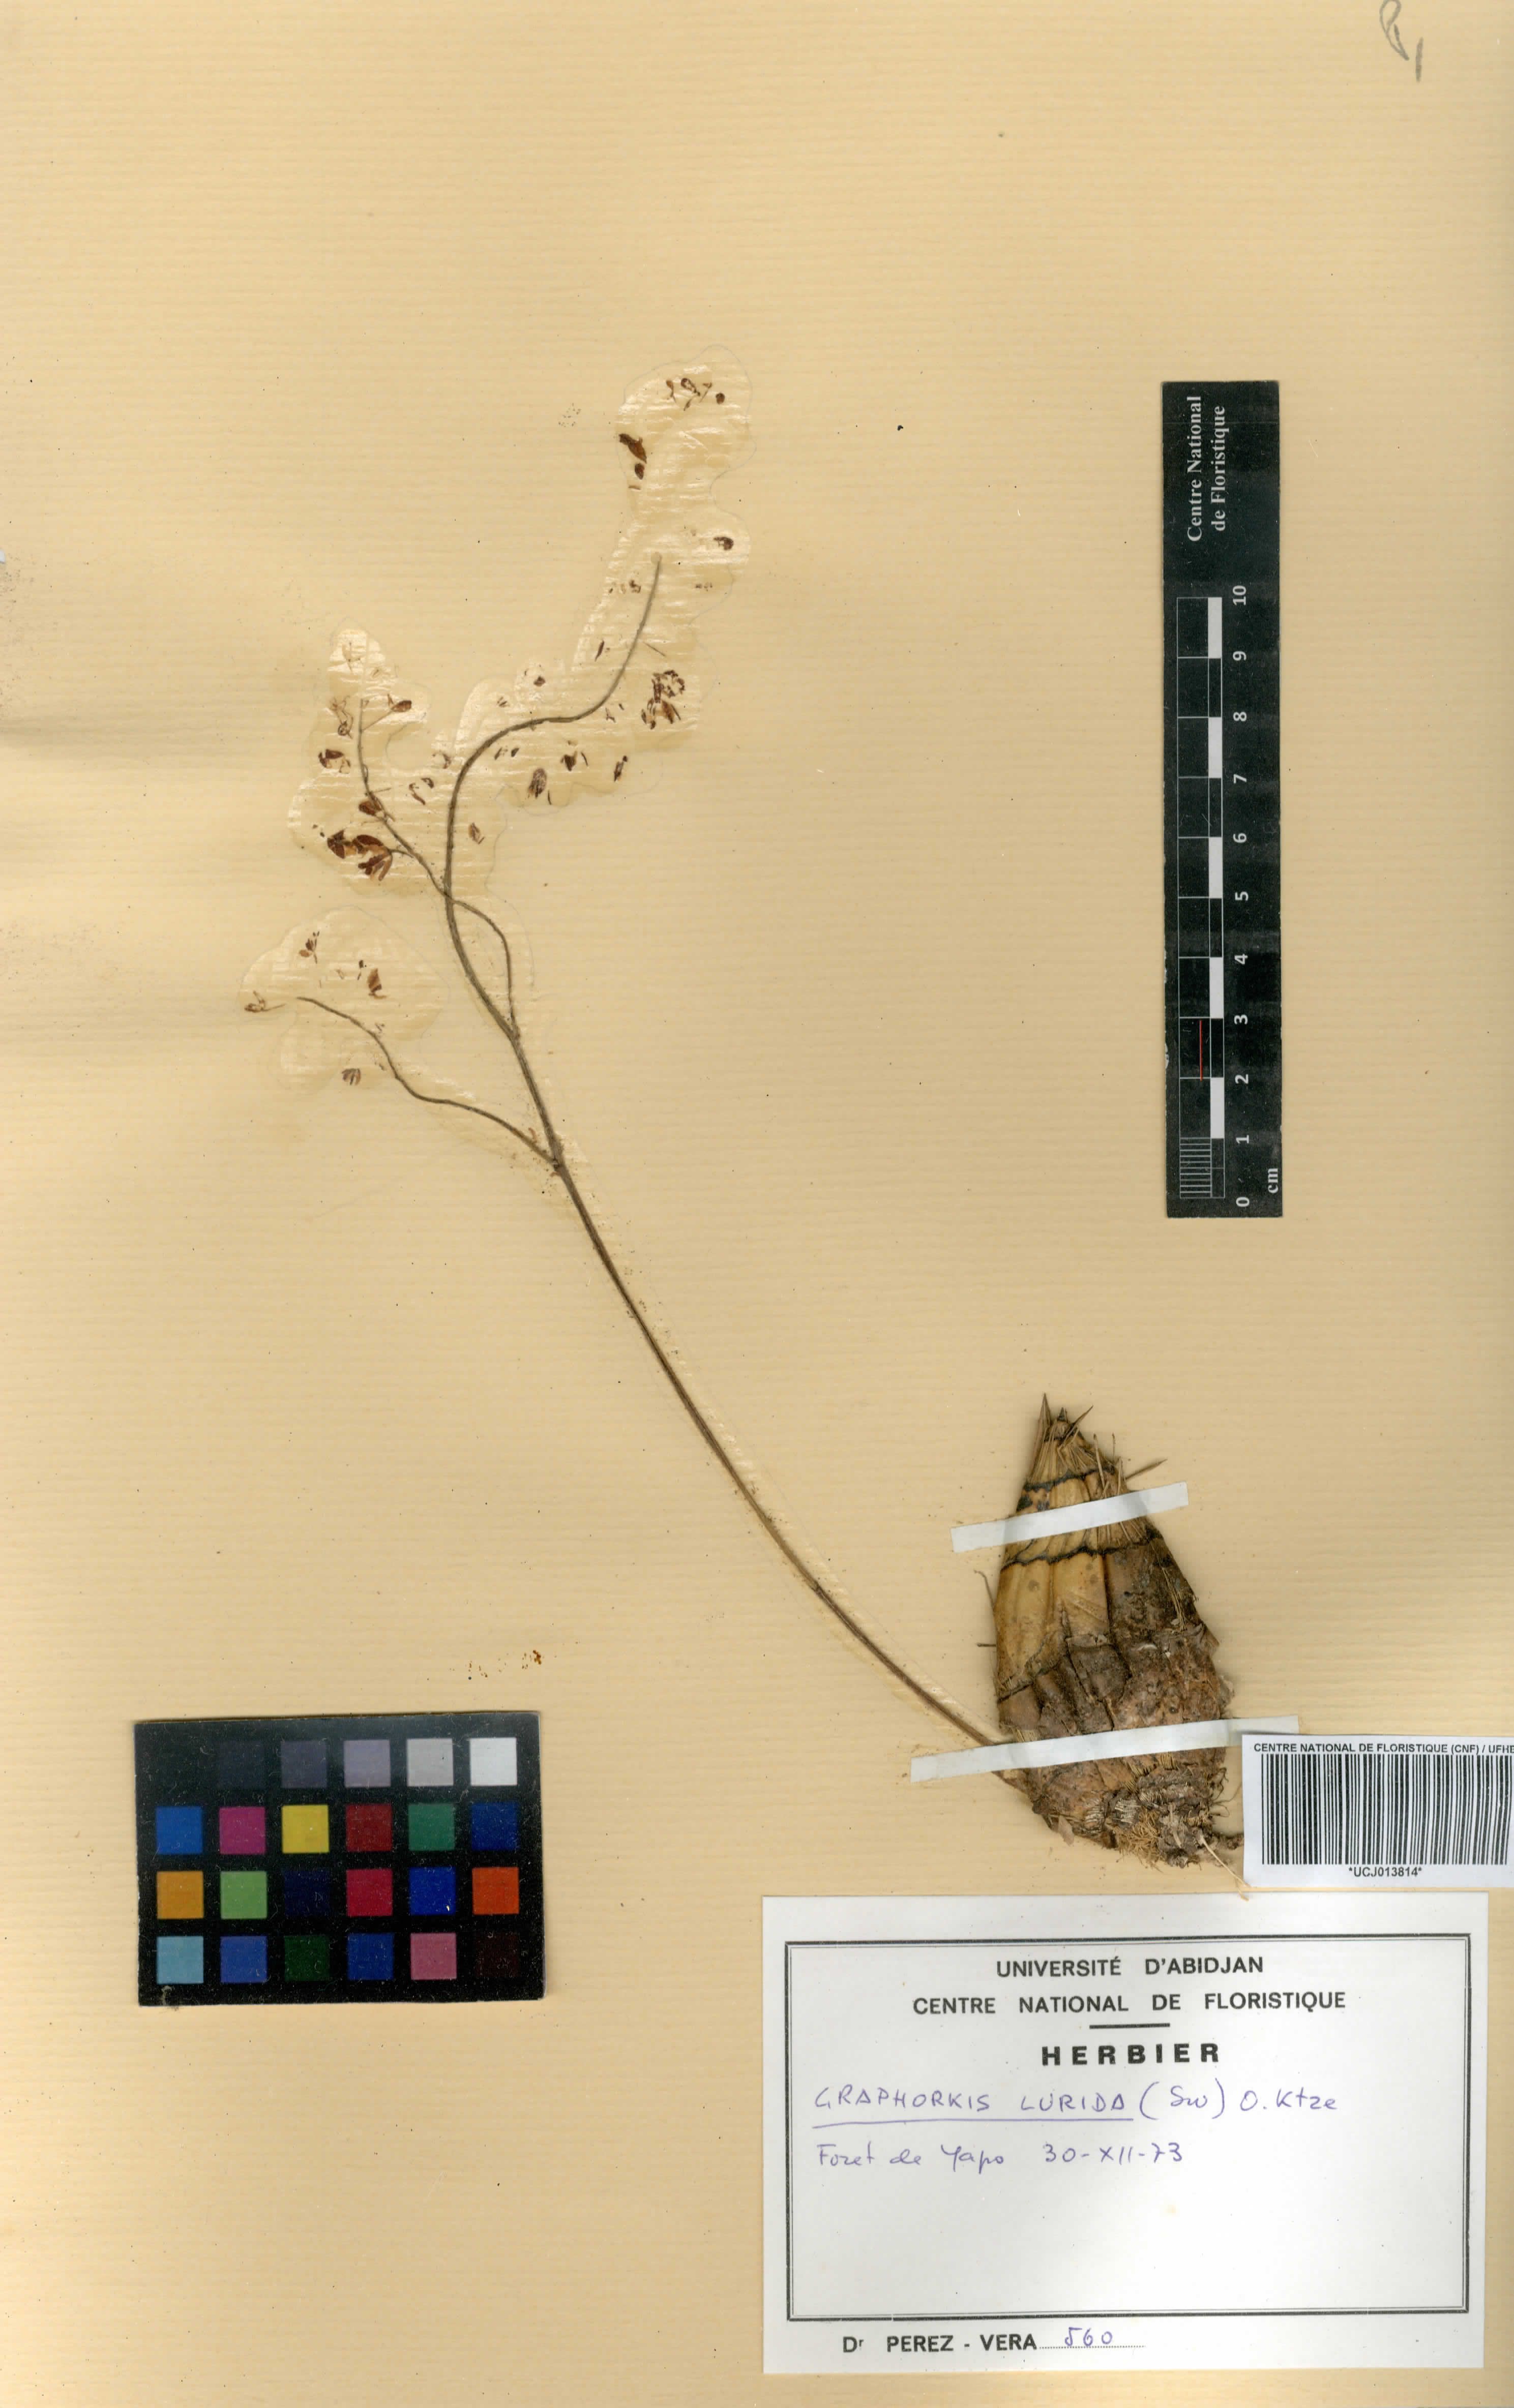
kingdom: Plantae
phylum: Tracheophyta
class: Liliopsida
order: Asparagales
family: Orchidaceae
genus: Graphorkis
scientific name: Graphorkis lurida
